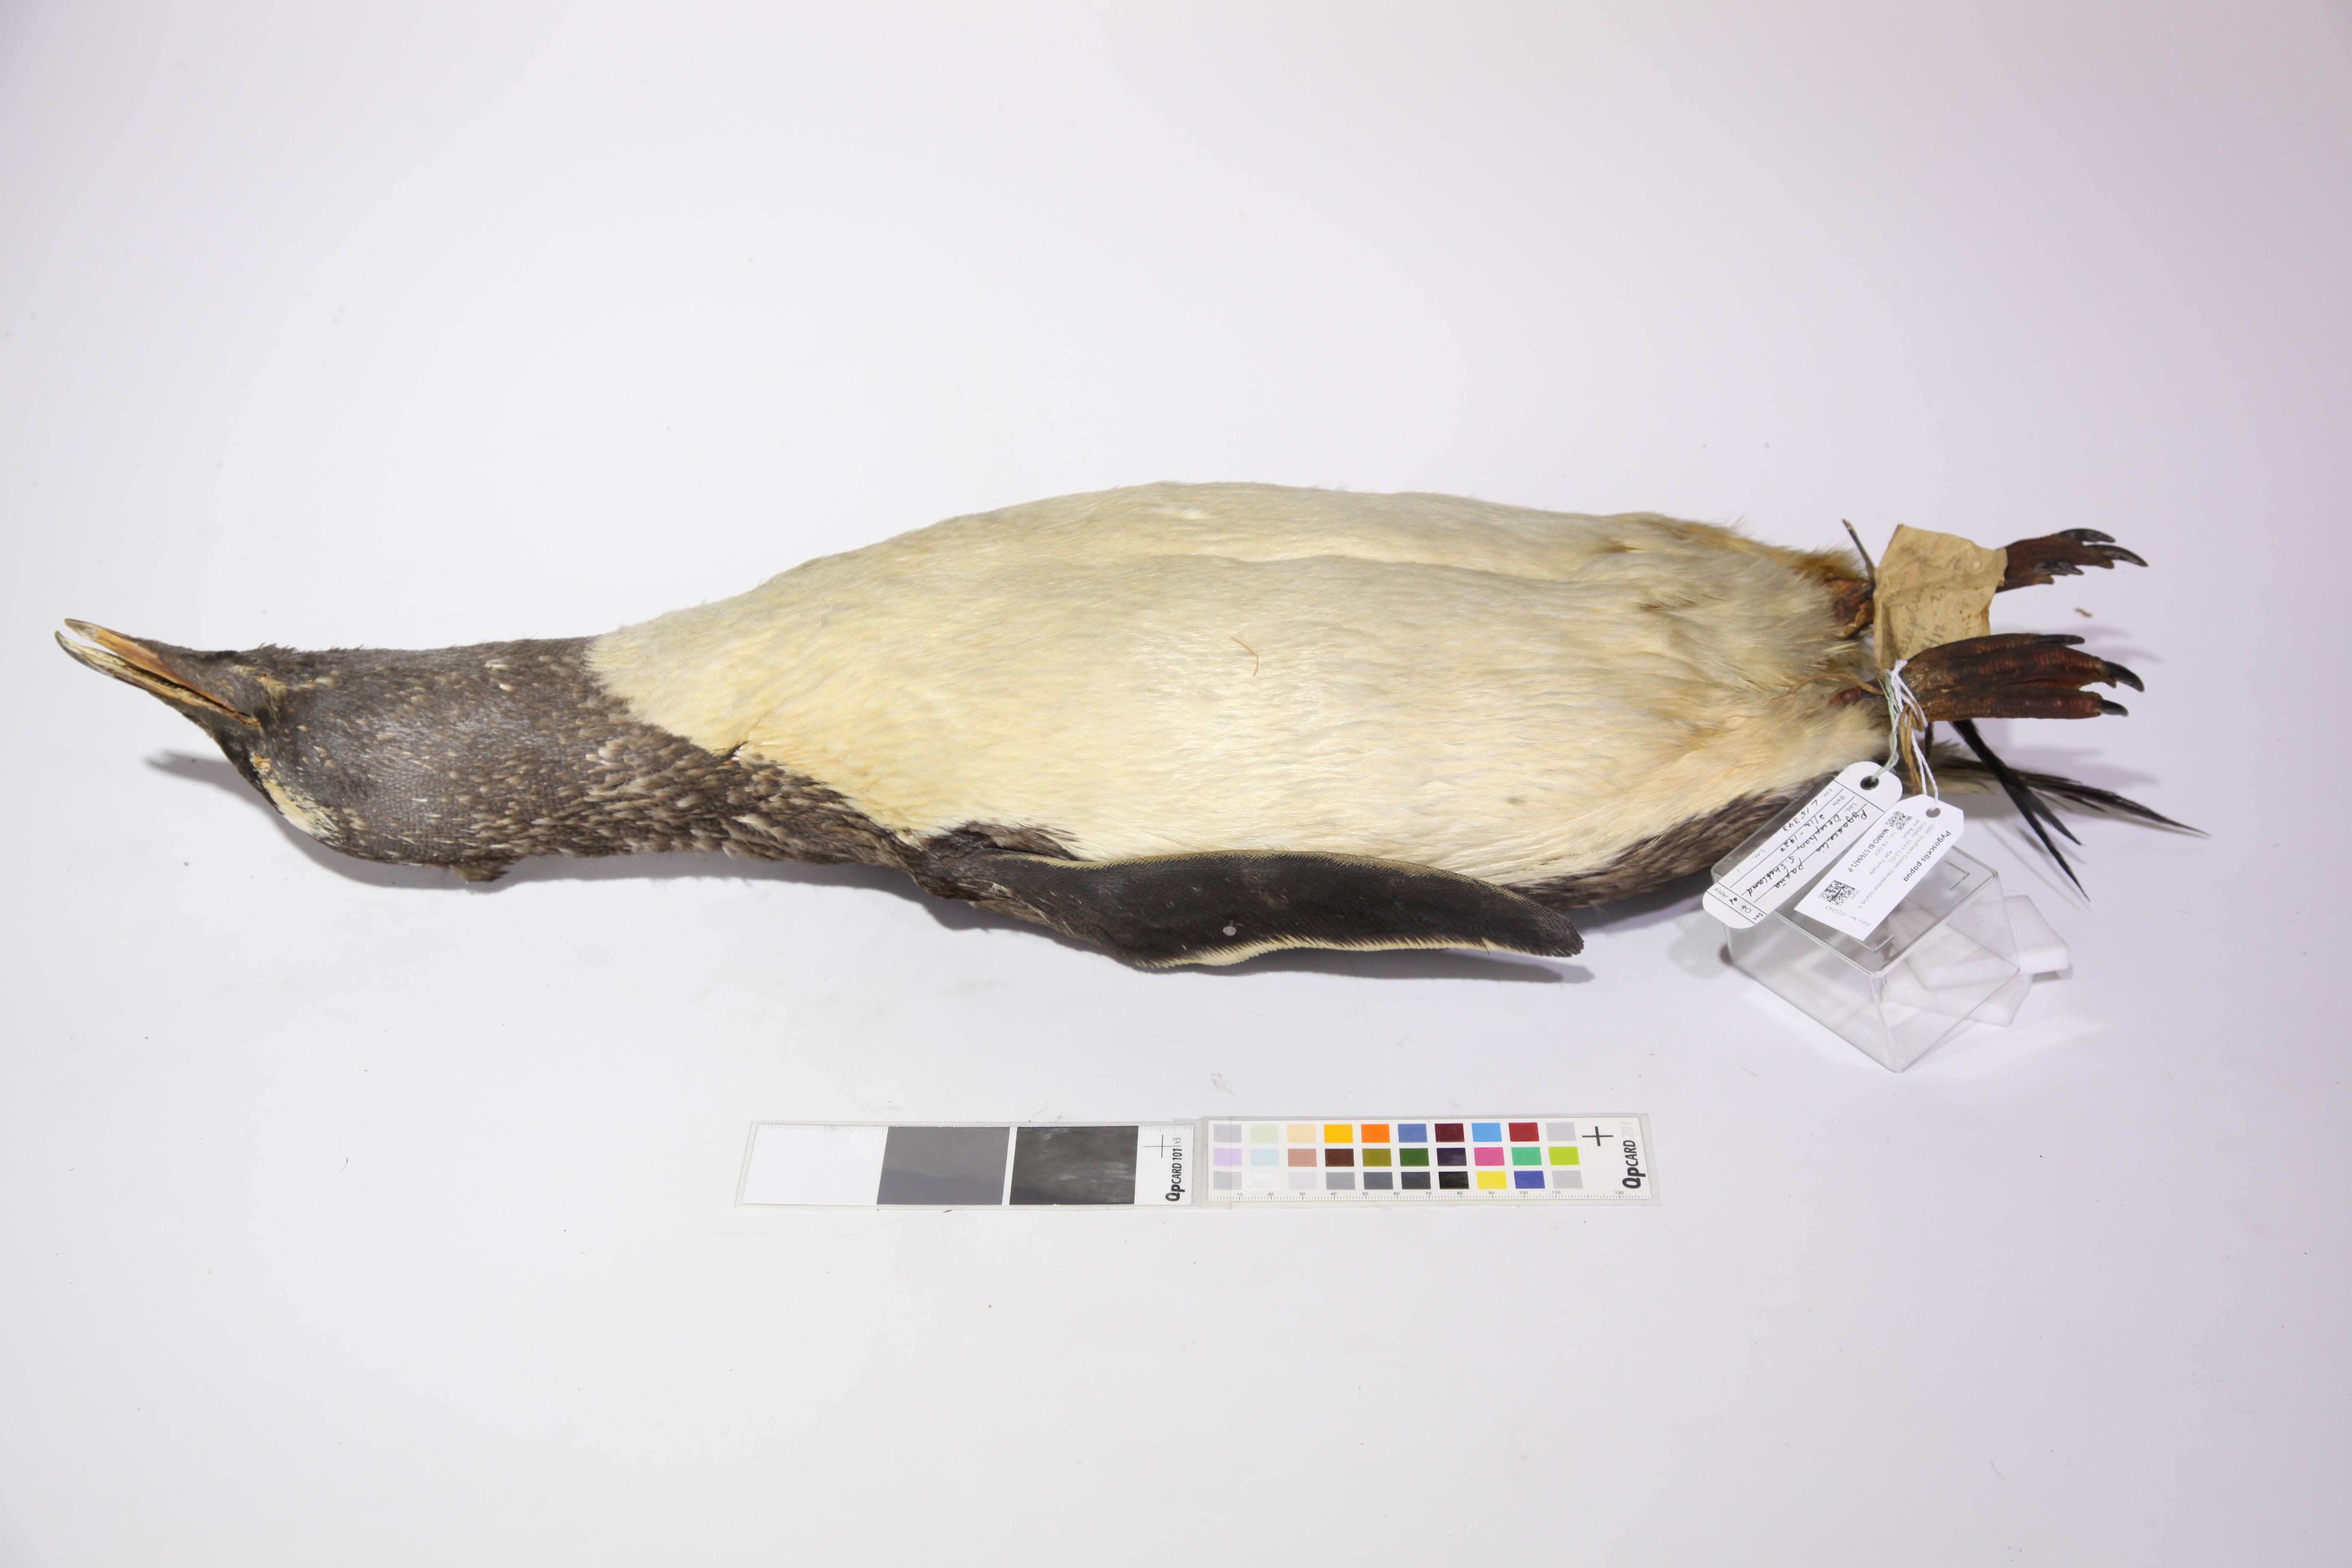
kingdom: Animalia
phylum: Chordata
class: Aves
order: Sphenisciformes
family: Spheniscidae
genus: Pygoscelis
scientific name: Pygoscelis papua
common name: Gentoo penguin
